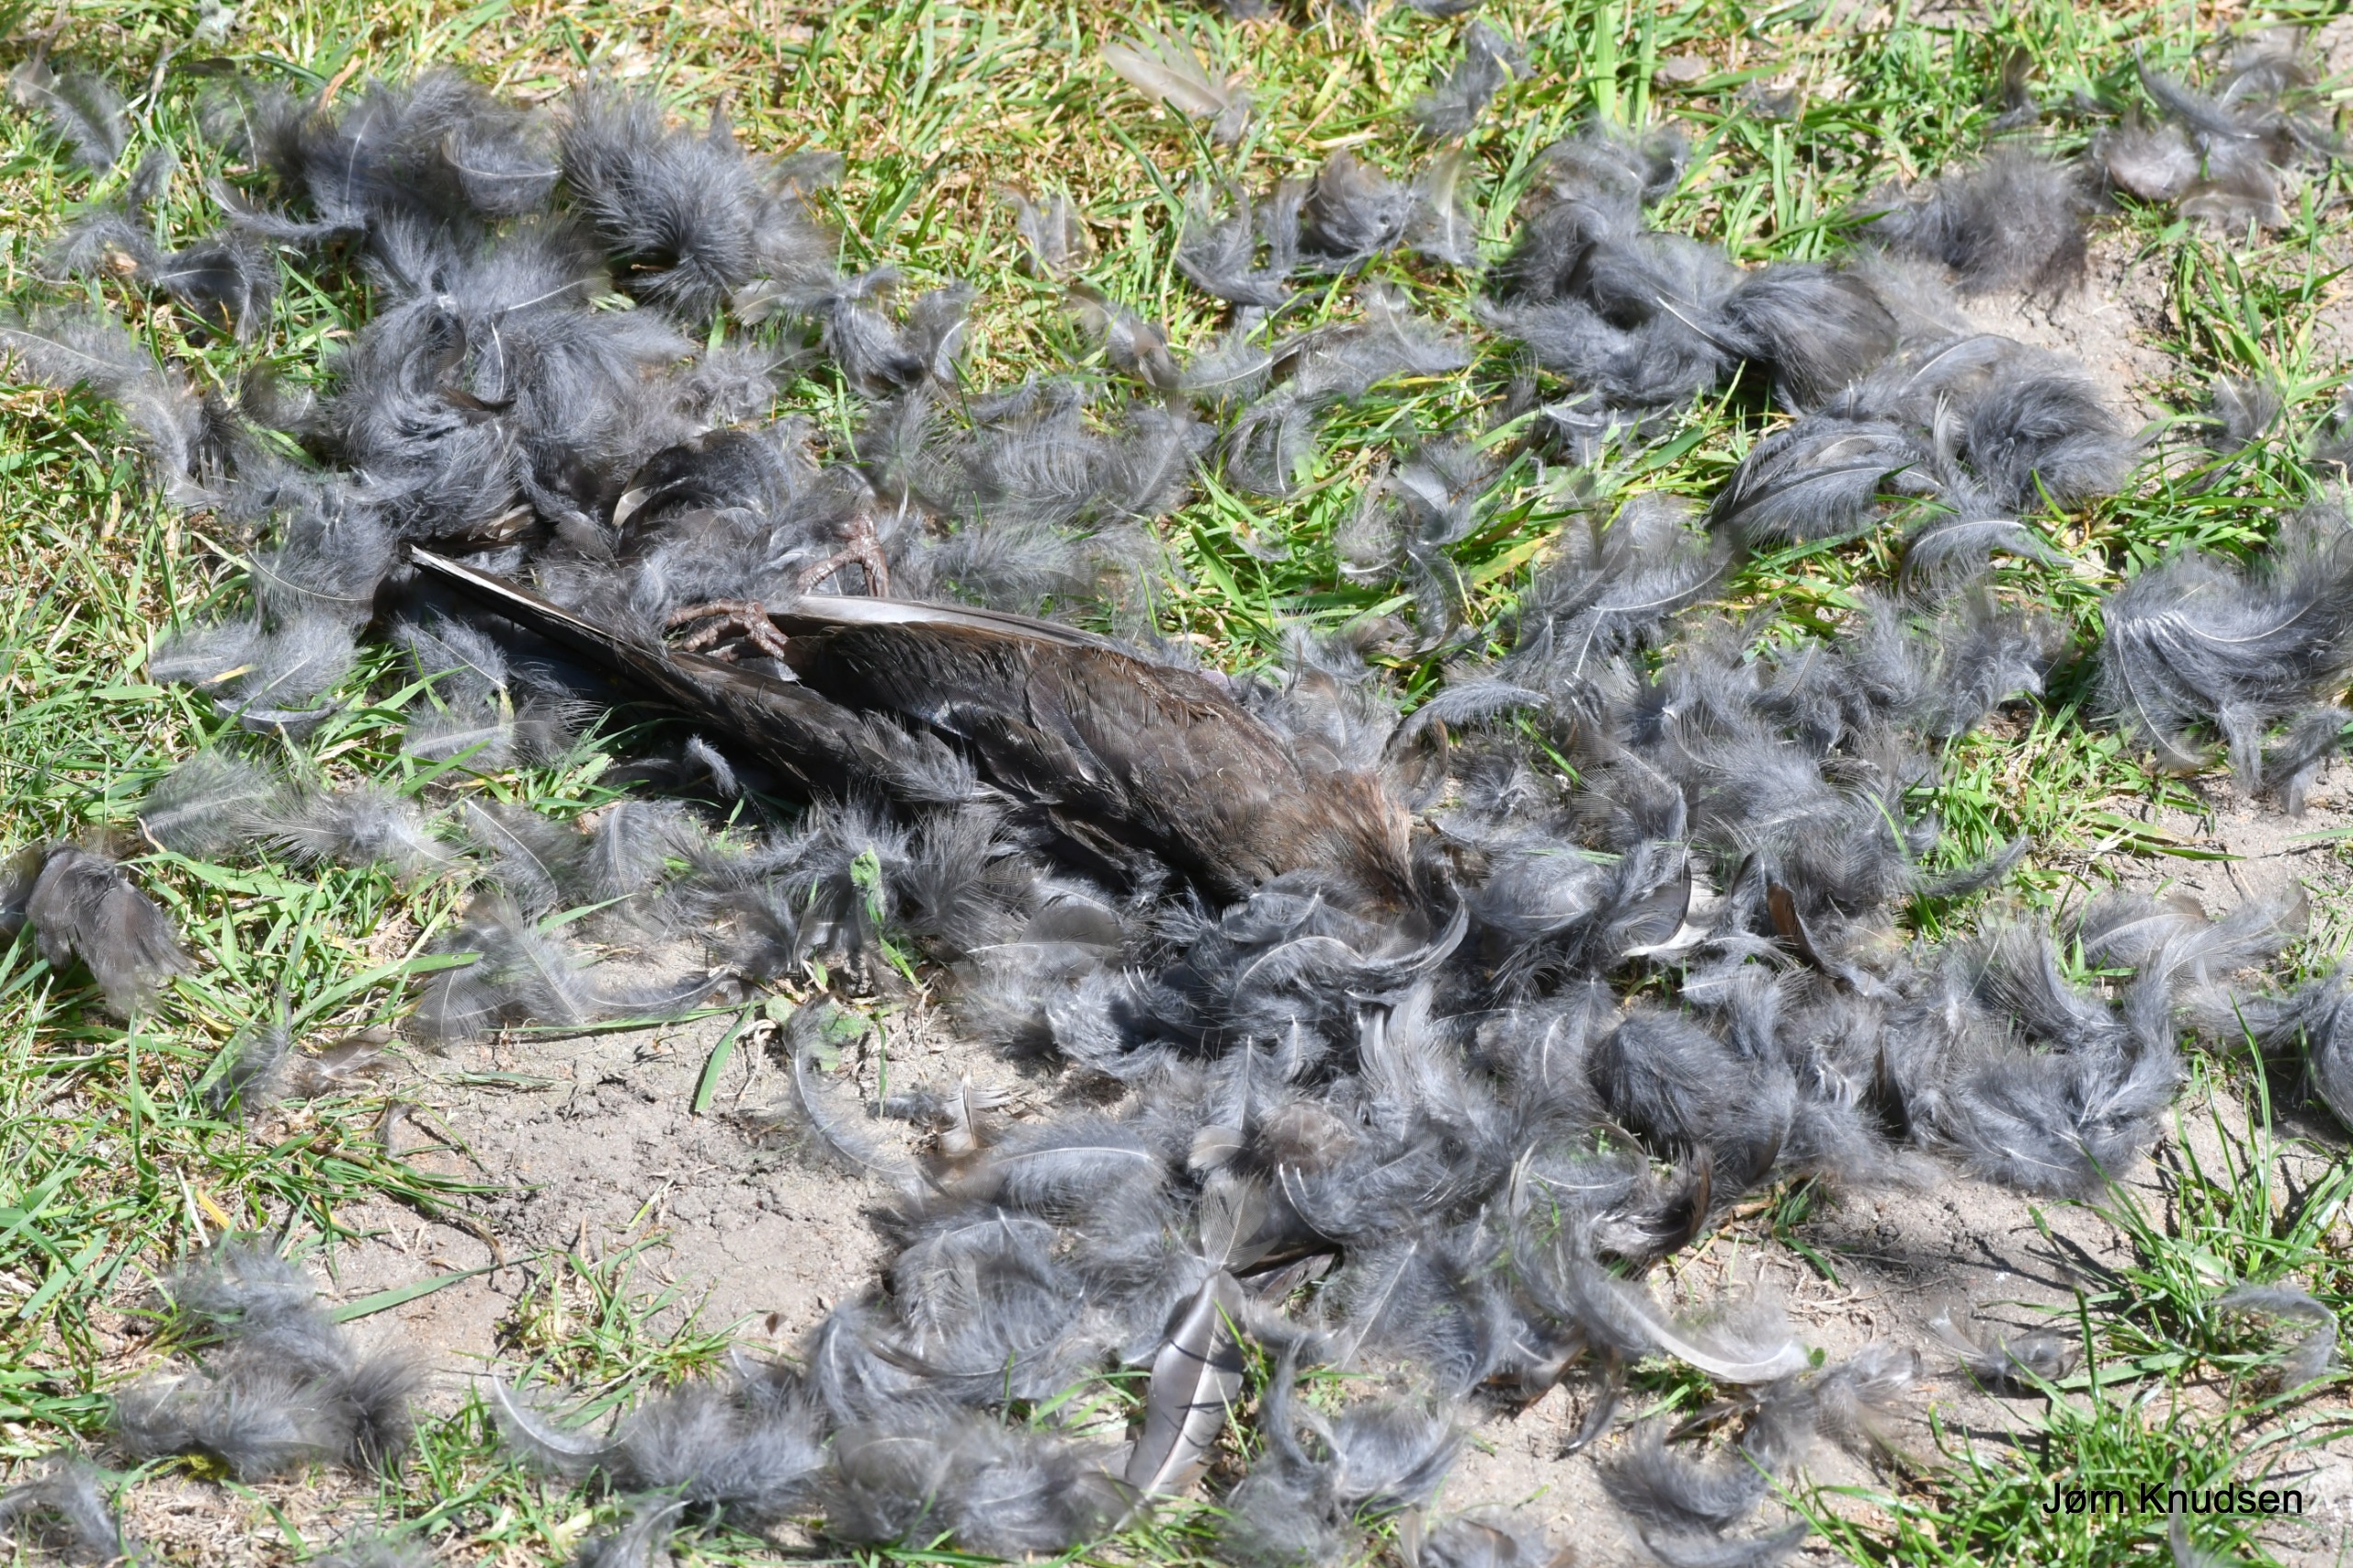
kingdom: Animalia
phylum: Chordata
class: Aves
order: Passeriformes
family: Turdidae
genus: Turdus
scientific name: Turdus merula
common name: Solsort
